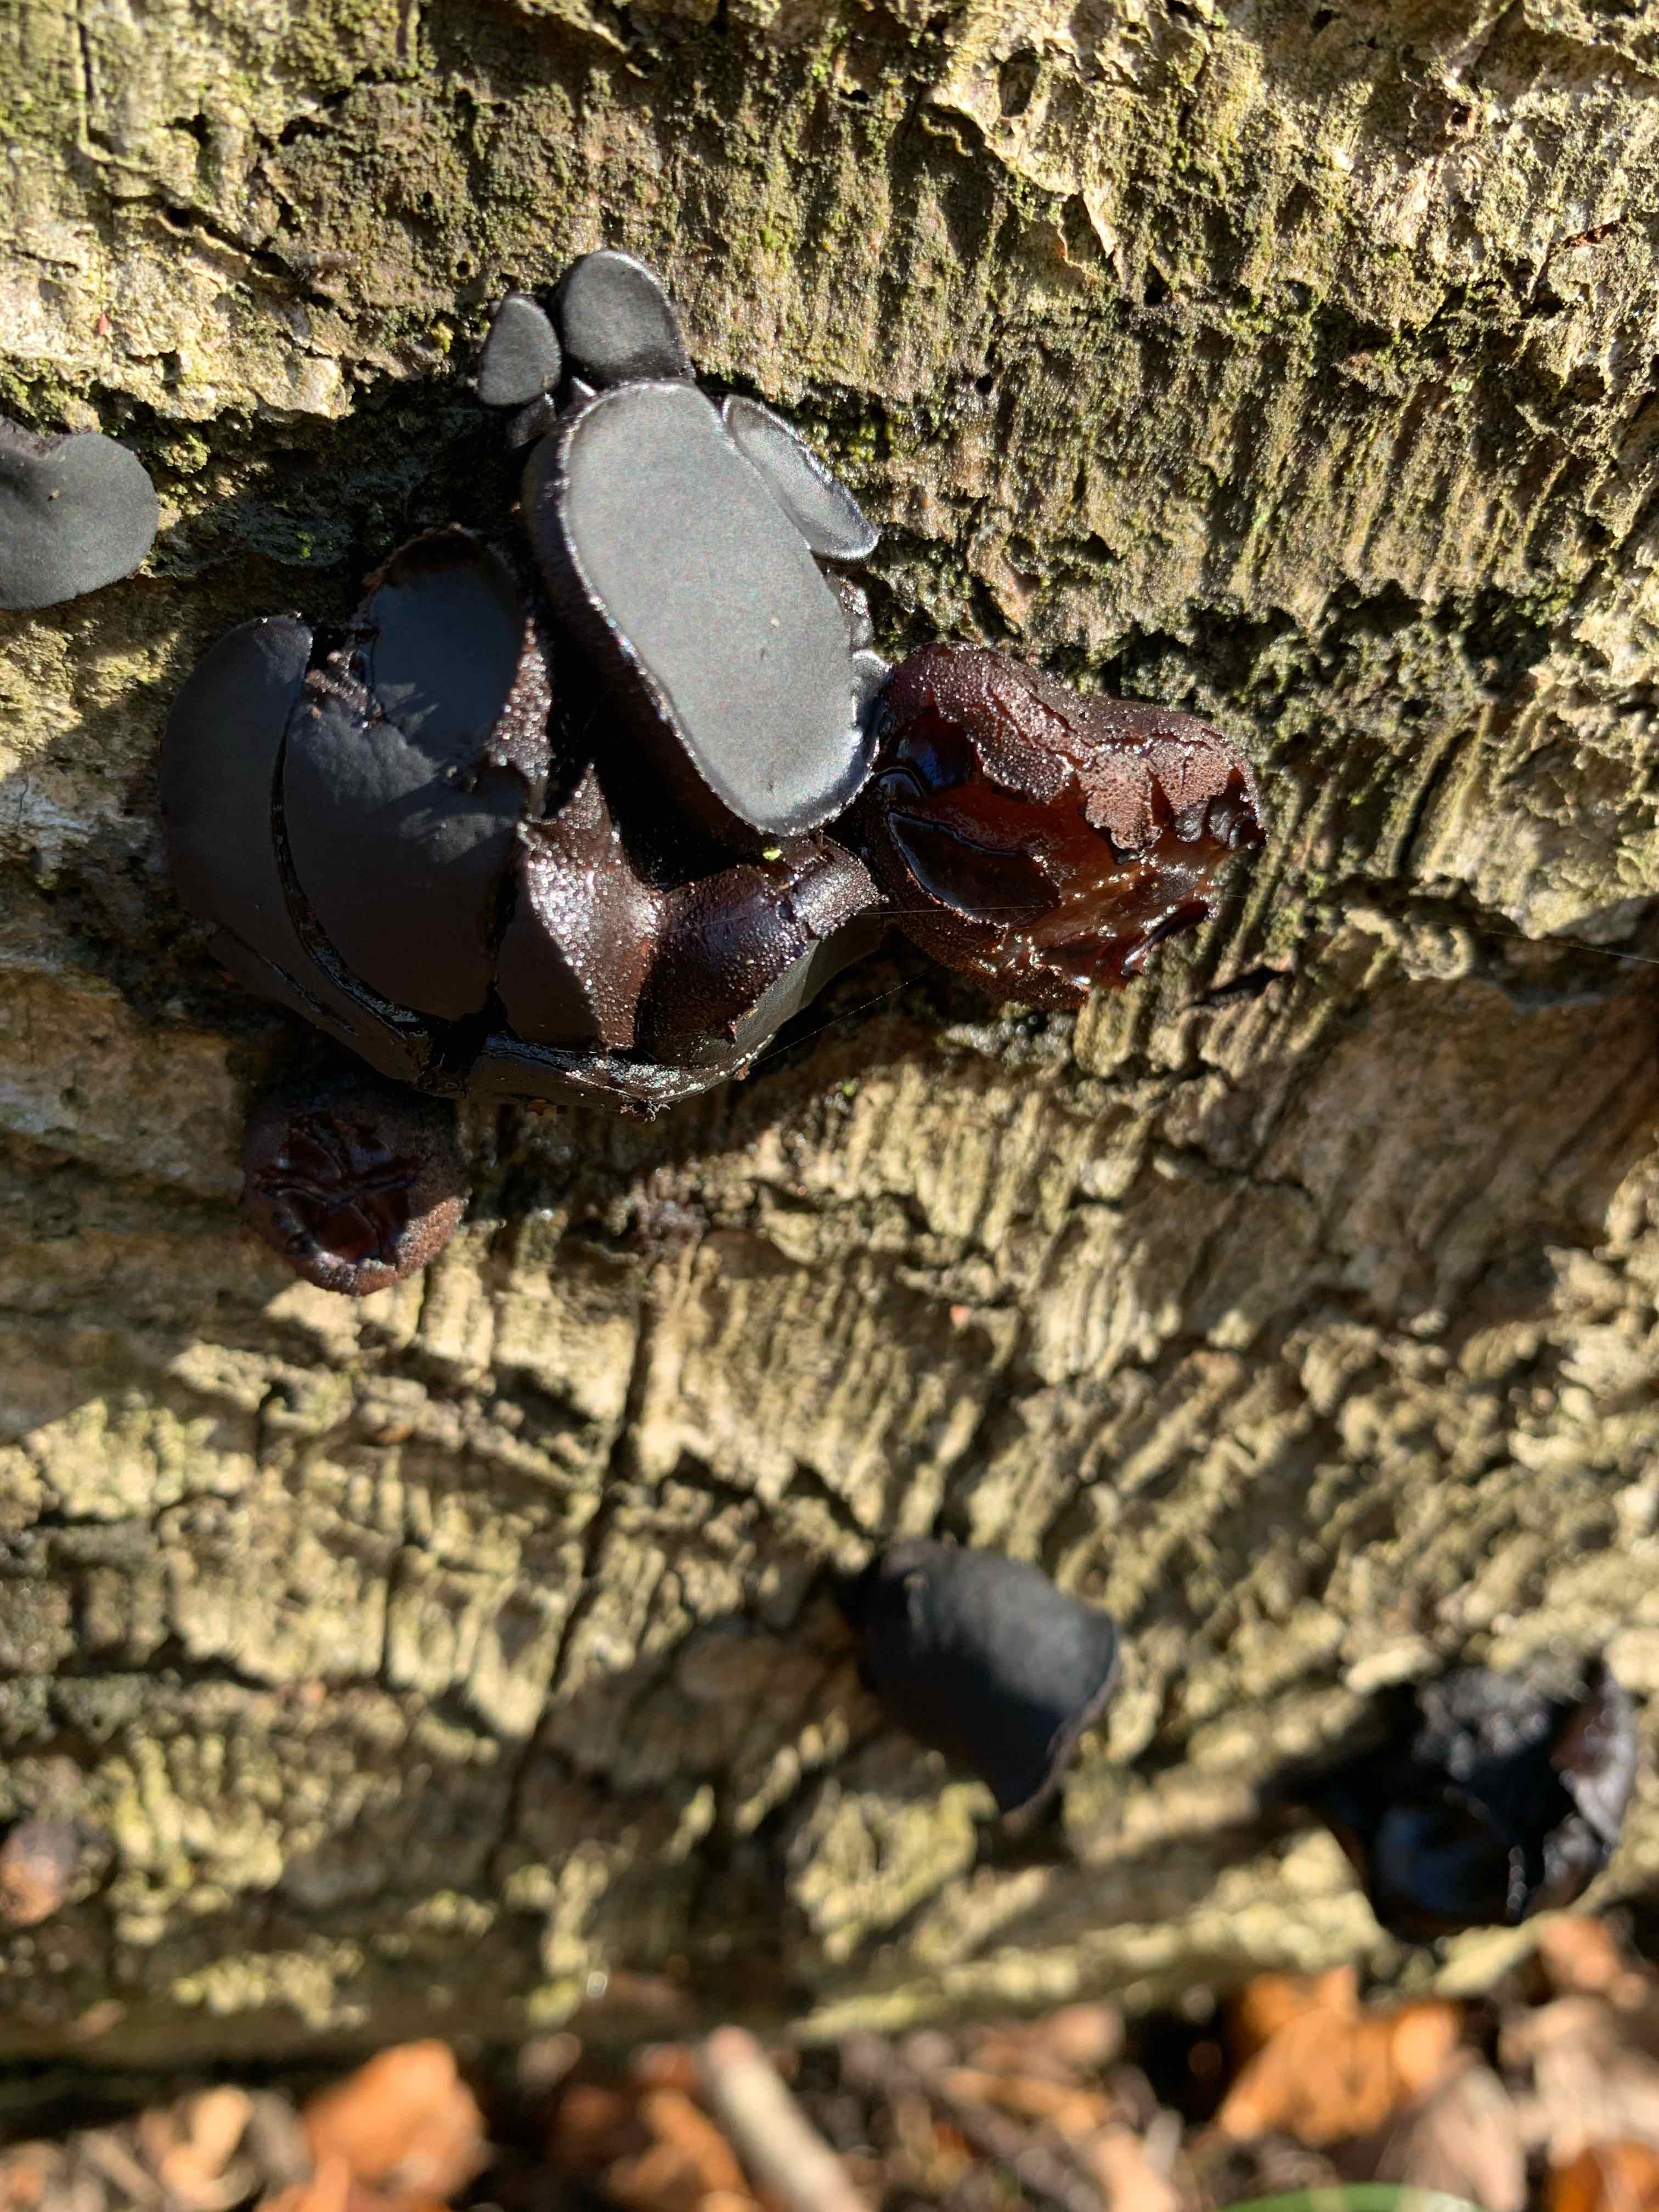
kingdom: Fungi
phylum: Ascomycota
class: Leotiomycetes
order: Phacidiales
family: Phacidiaceae
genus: Bulgaria
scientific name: Bulgaria inquinans
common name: afsmittende topsvamp
